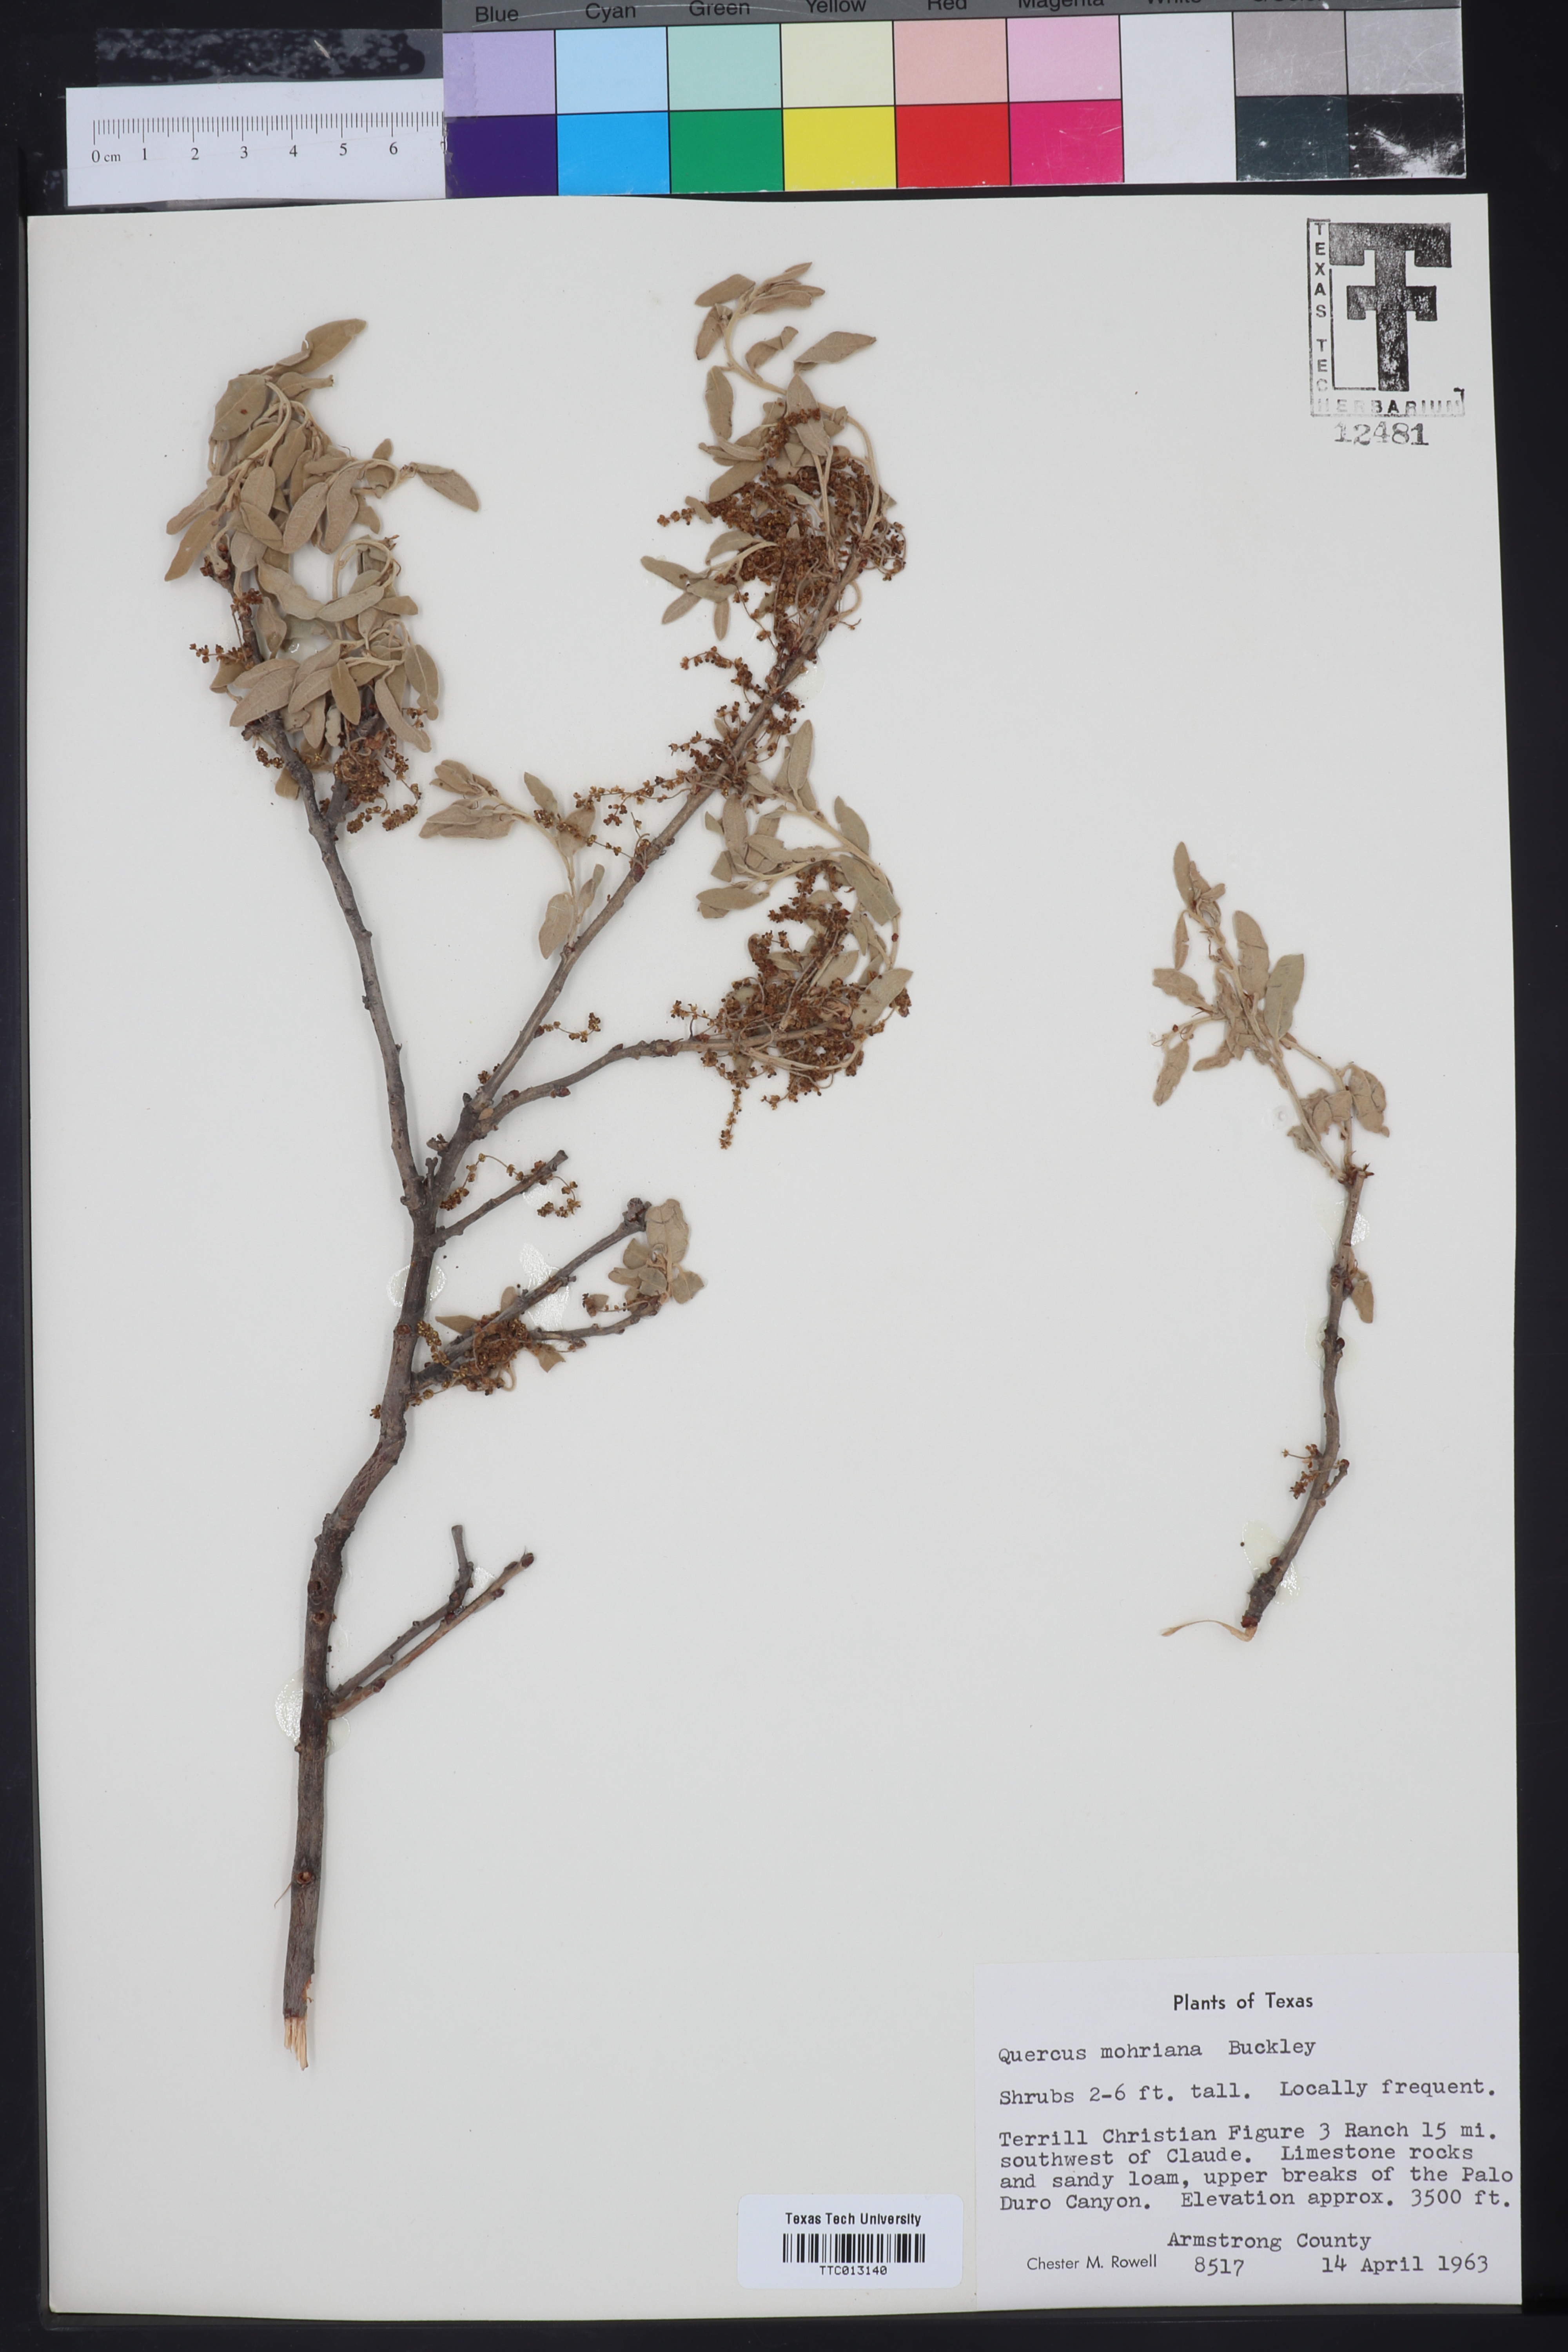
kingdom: Plantae
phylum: Tracheophyta
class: Magnoliopsida
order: Fagales
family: Fagaceae
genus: Quercus
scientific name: Quercus mohriana
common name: Mohr oak
